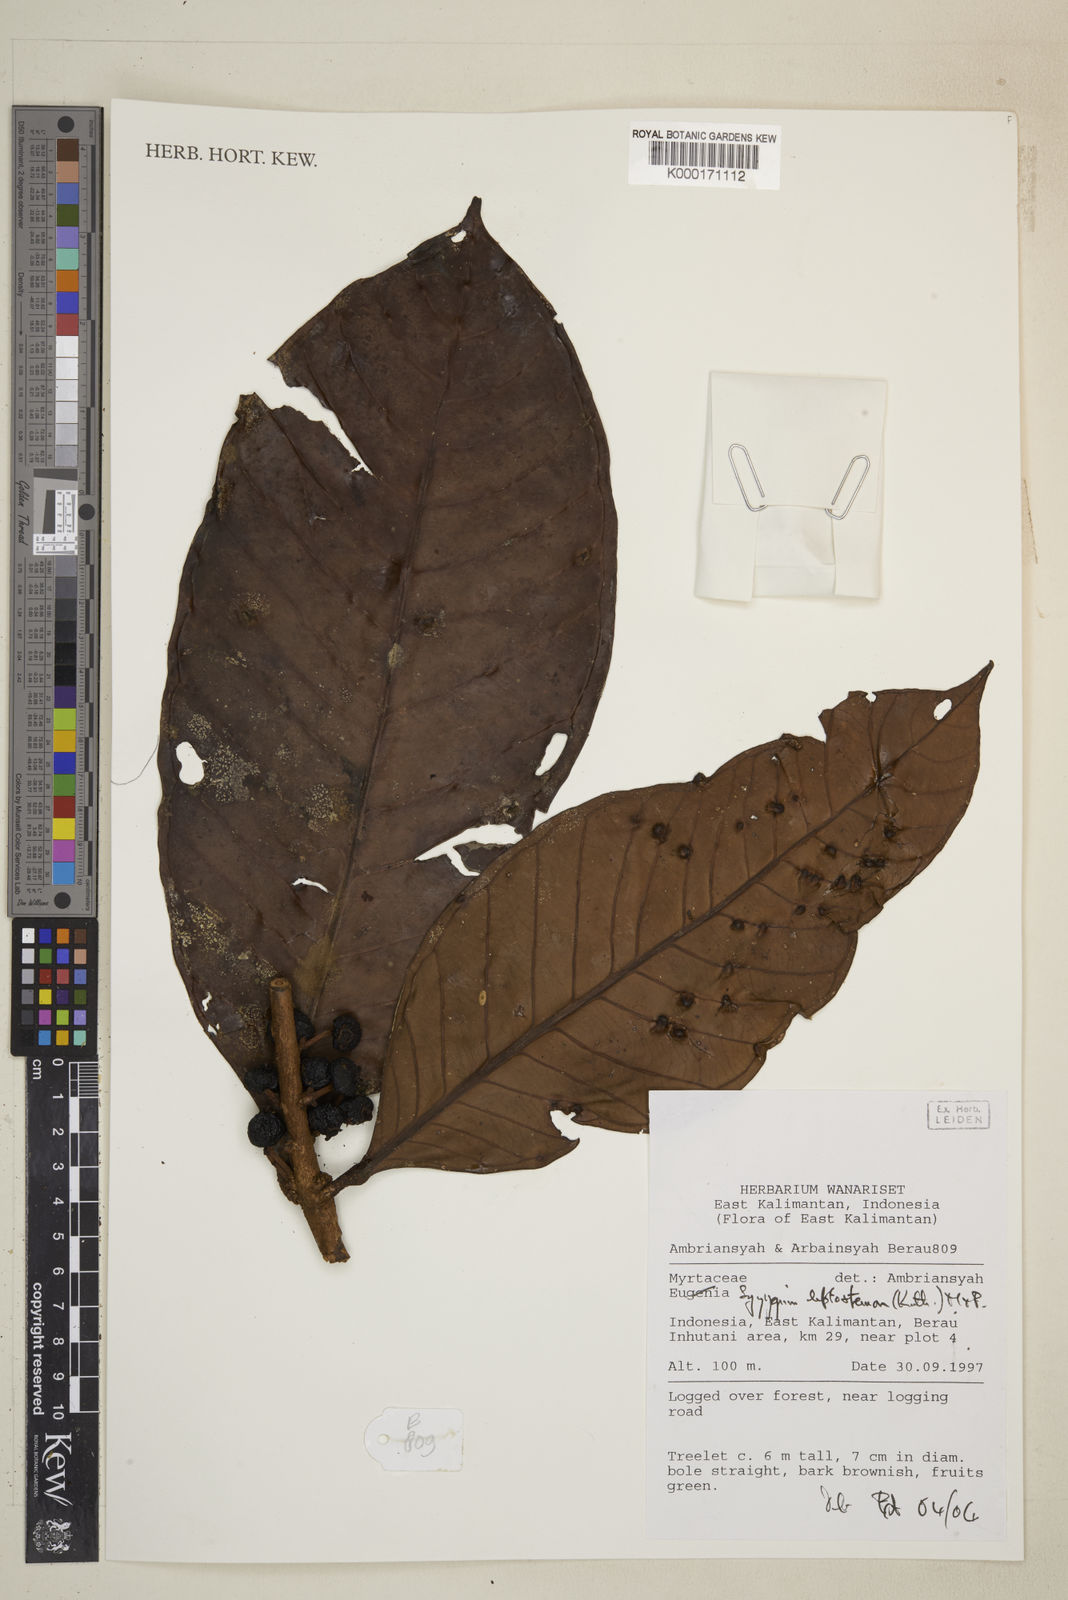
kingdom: Plantae
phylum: Tracheophyta
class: Magnoliopsida
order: Myrtales
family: Myrtaceae
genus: Syzygium
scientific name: Syzygium
